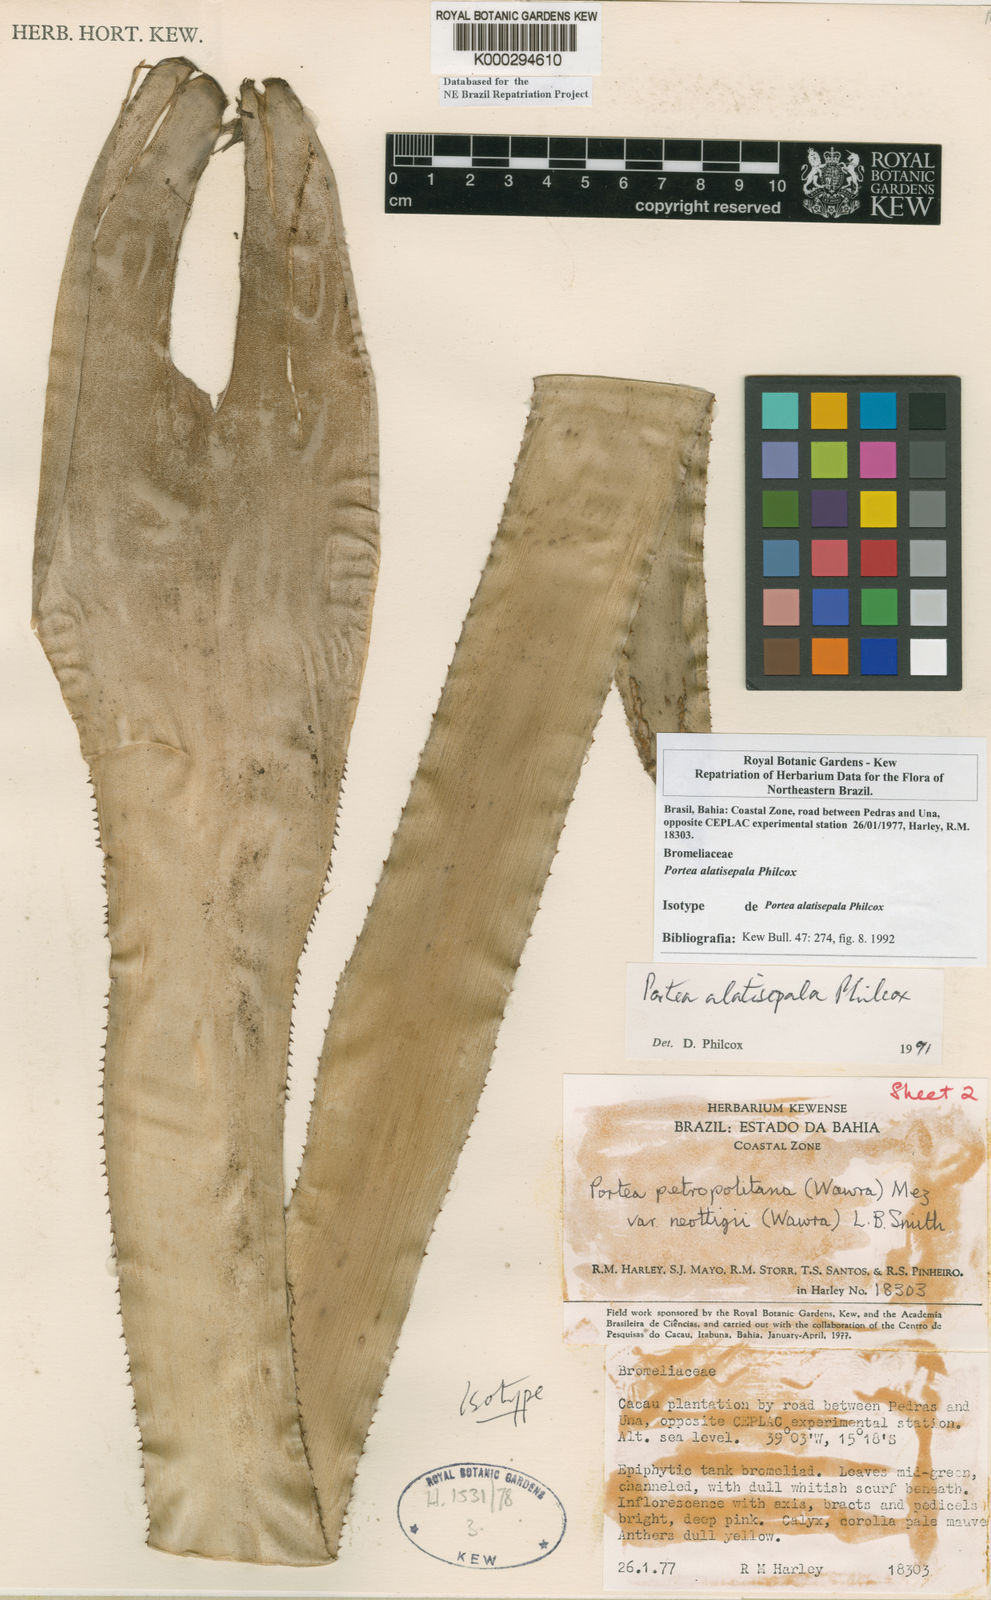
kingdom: Plantae
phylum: Tracheophyta
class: Liliopsida
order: Poales
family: Bromeliaceae
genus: Portea
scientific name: Portea alatisepala
